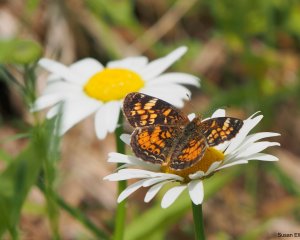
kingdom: Animalia
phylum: Arthropoda
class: Insecta
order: Lepidoptera
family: Nymphalidae
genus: Phyciodes
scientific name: Phyciodes
